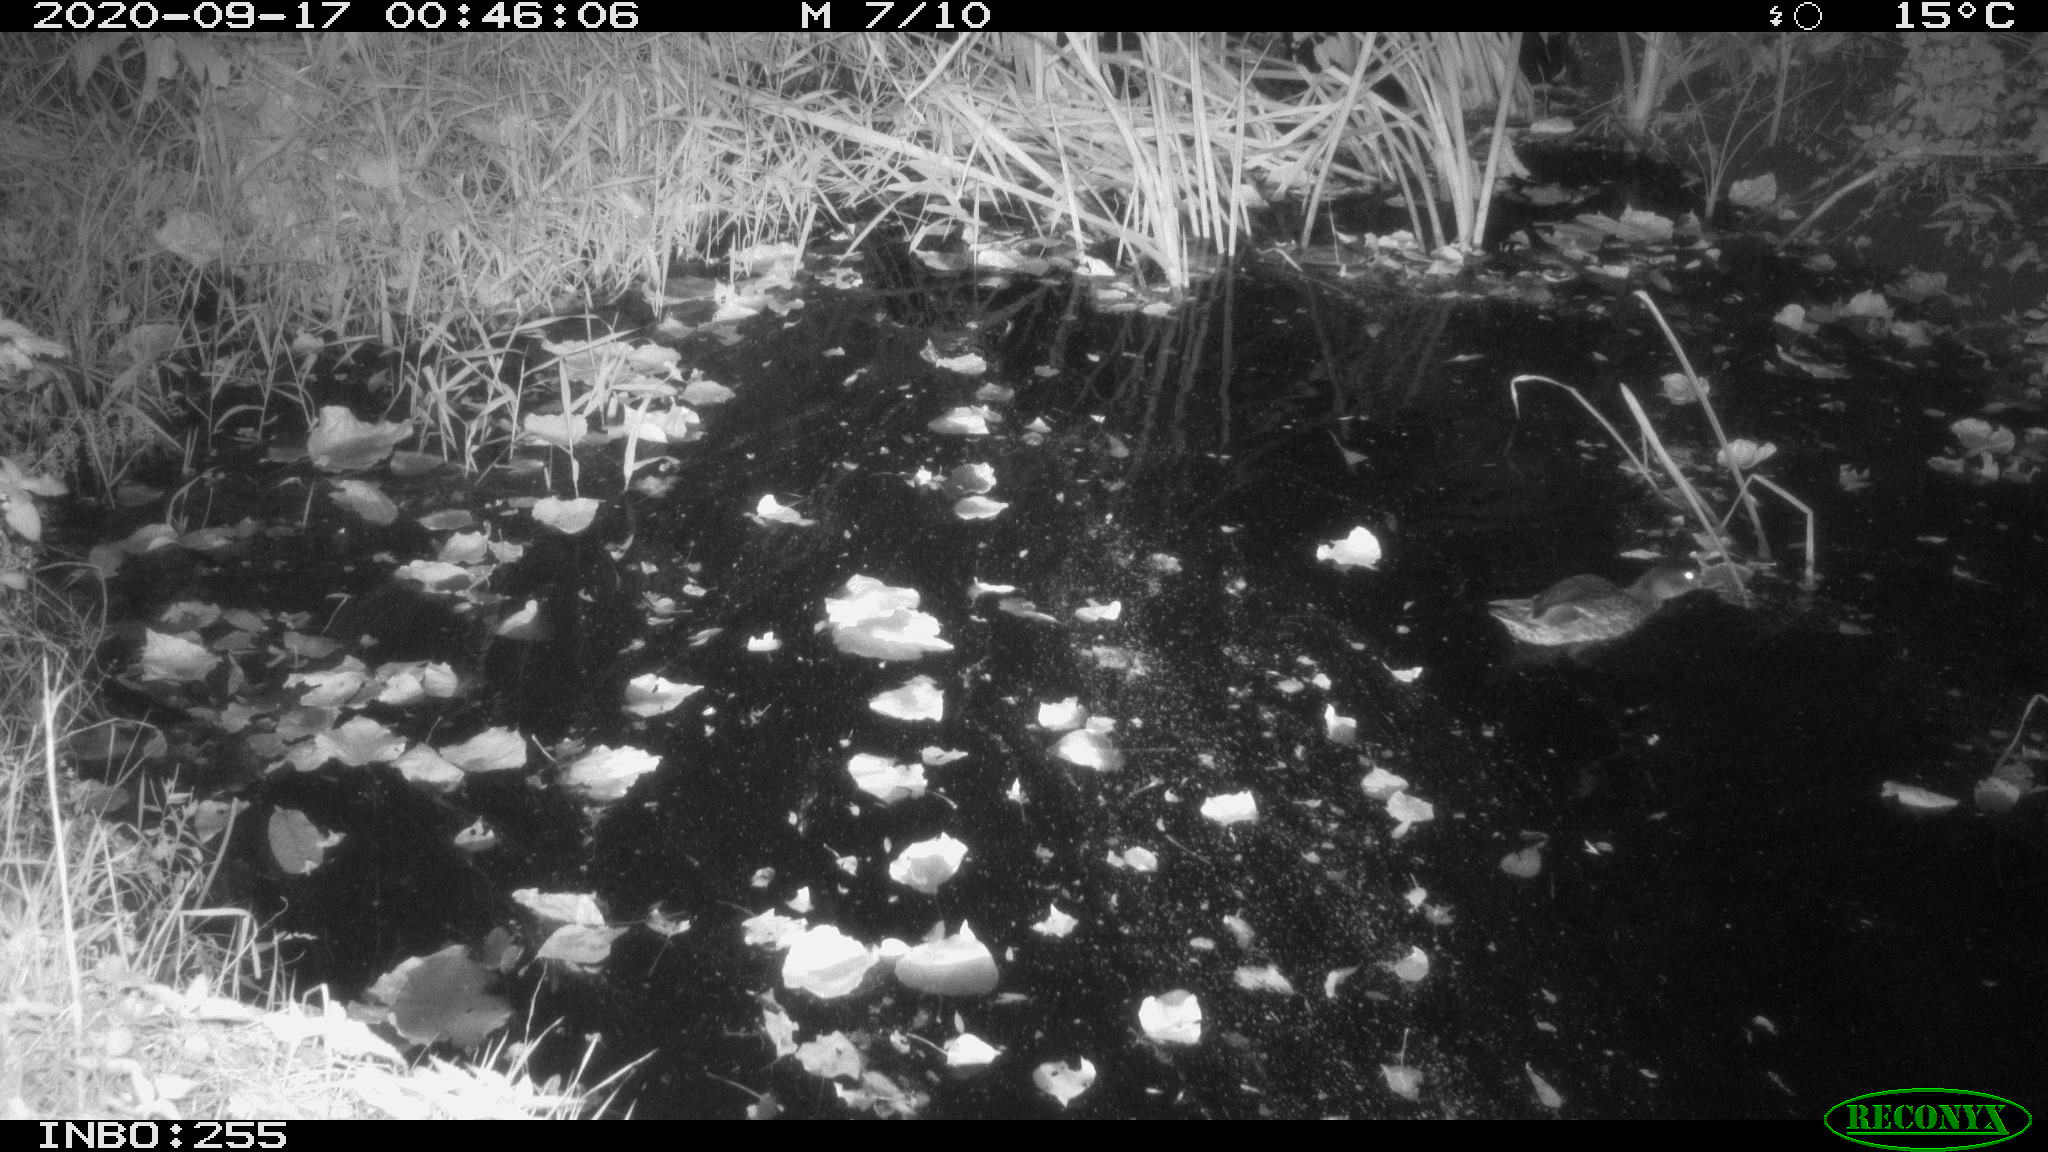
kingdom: Animalia
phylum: Chordata
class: Aves
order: Anseriformes
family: Anatidae
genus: Anas
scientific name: Anas platyrhynchos
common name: Mallard
